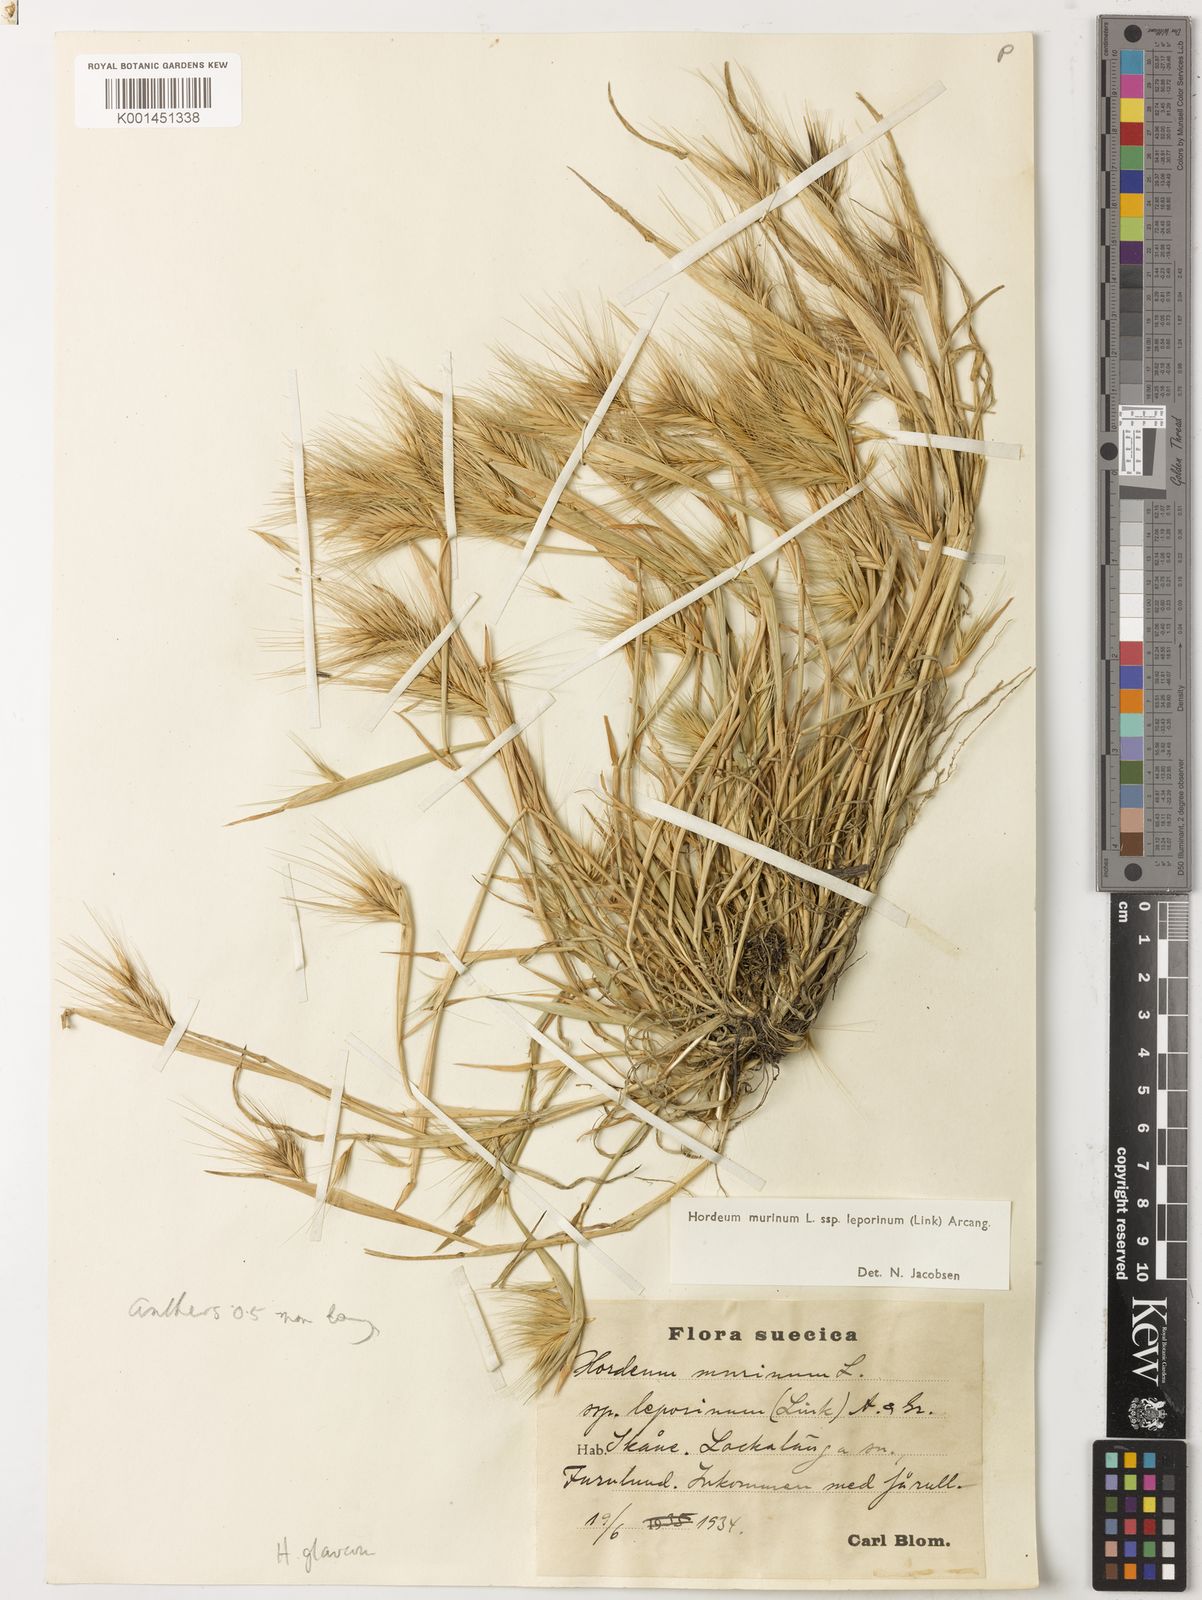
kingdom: Plantae
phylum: Tracheophyta
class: Liliopsida
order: Poales
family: Poaceae
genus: Hordeum
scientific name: Hordeum murinum
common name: Wall barley
